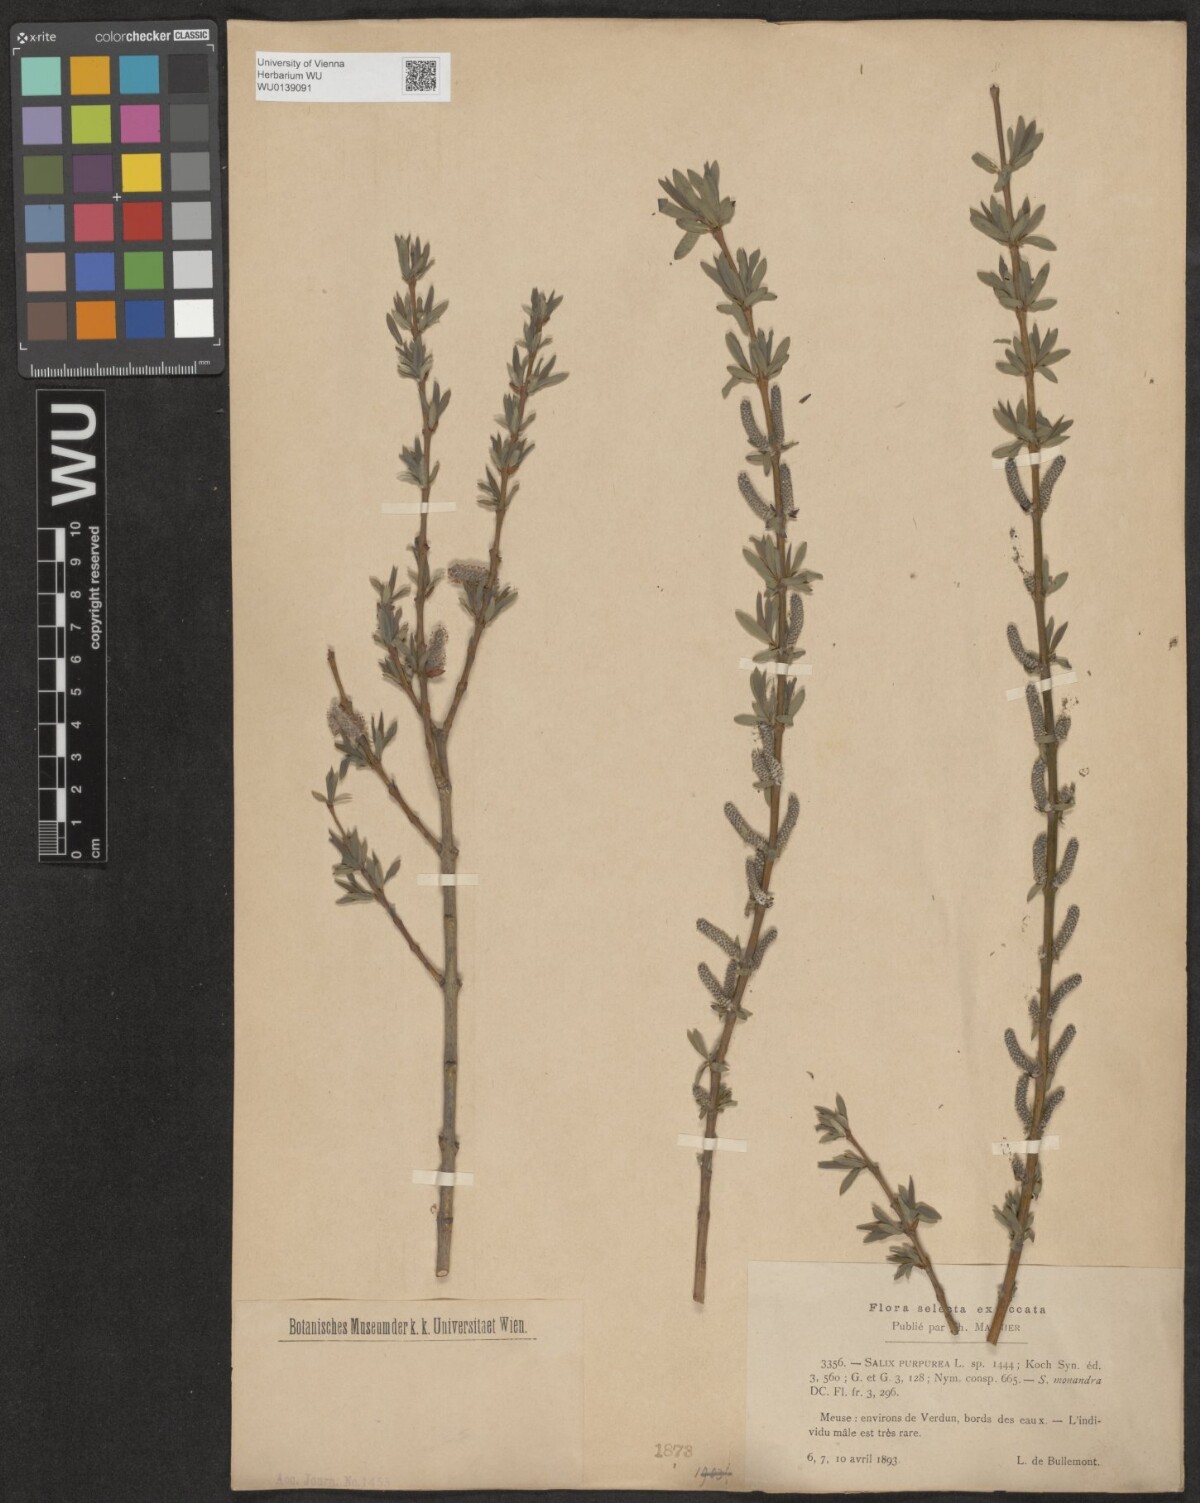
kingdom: Plantae
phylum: Tracheophyta
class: Magnoliopsida
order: Malpighiales
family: Salicaceae
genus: Salix
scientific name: Salix purpurea
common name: Purple willow
